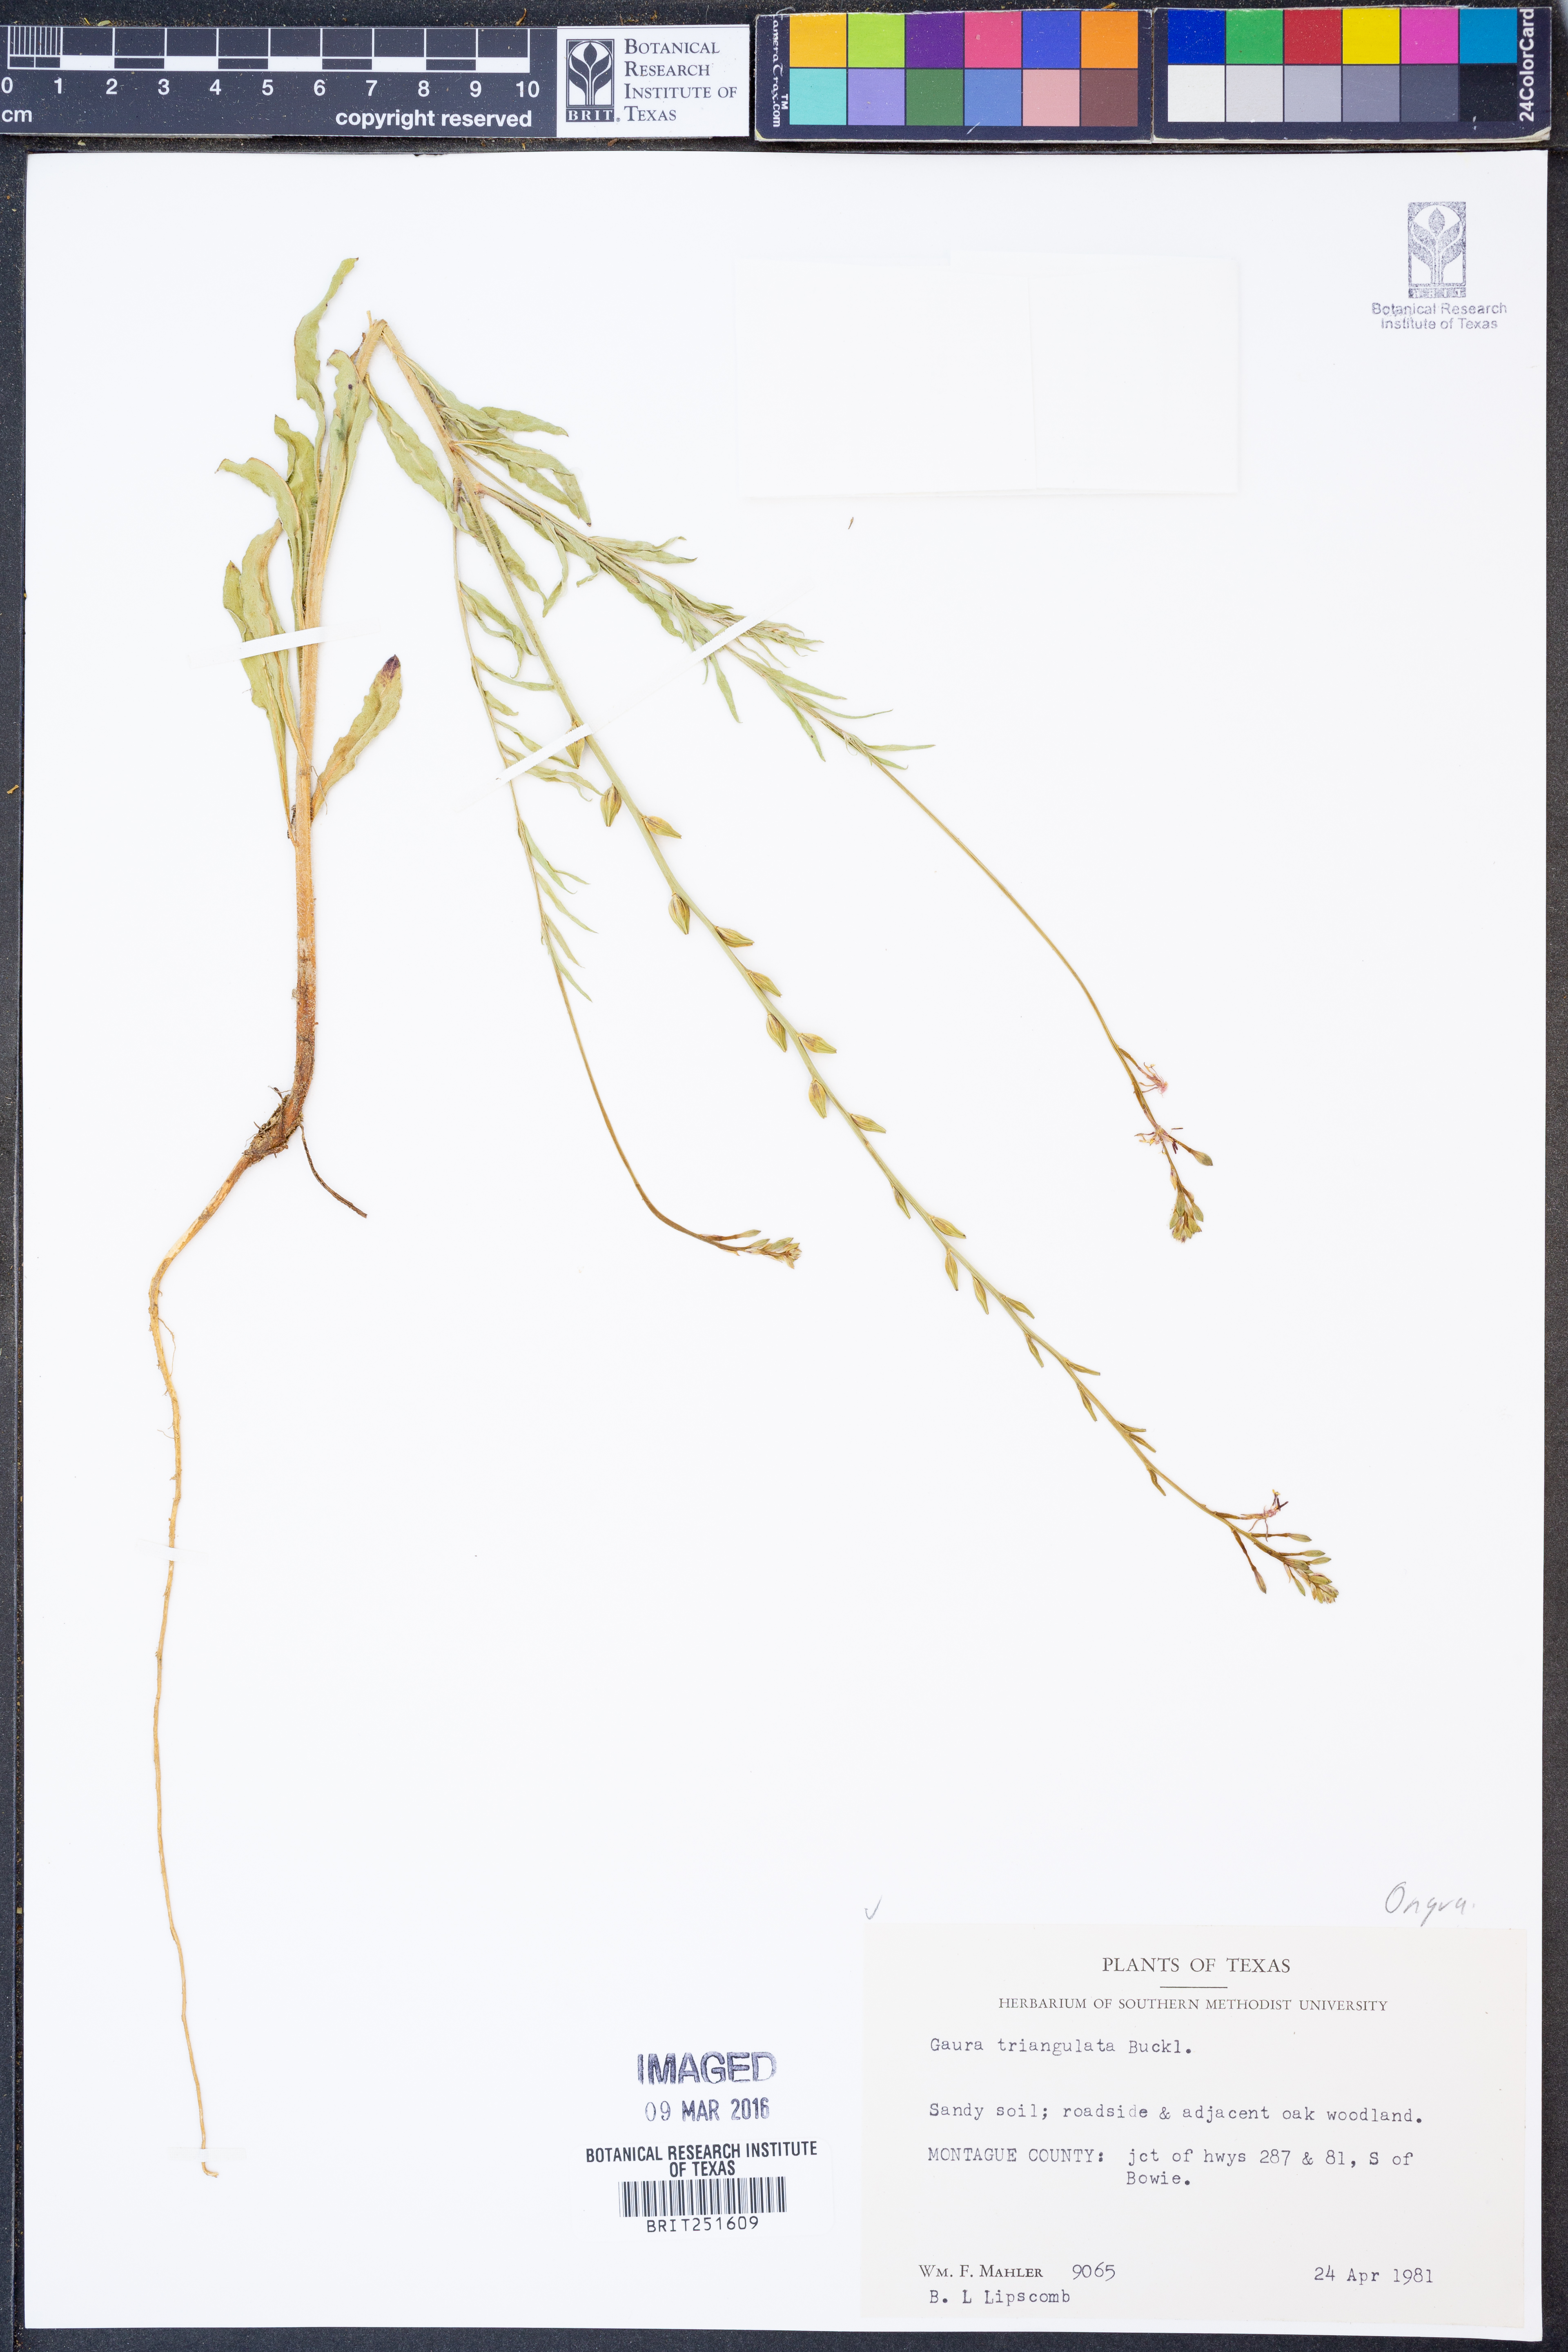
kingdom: Plantae
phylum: Tracheophyta
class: Magnoliopsida
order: Myrtales
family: Onagraceae
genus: Oenothera
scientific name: Oenothera triangulata
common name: Prairie beeblossom
